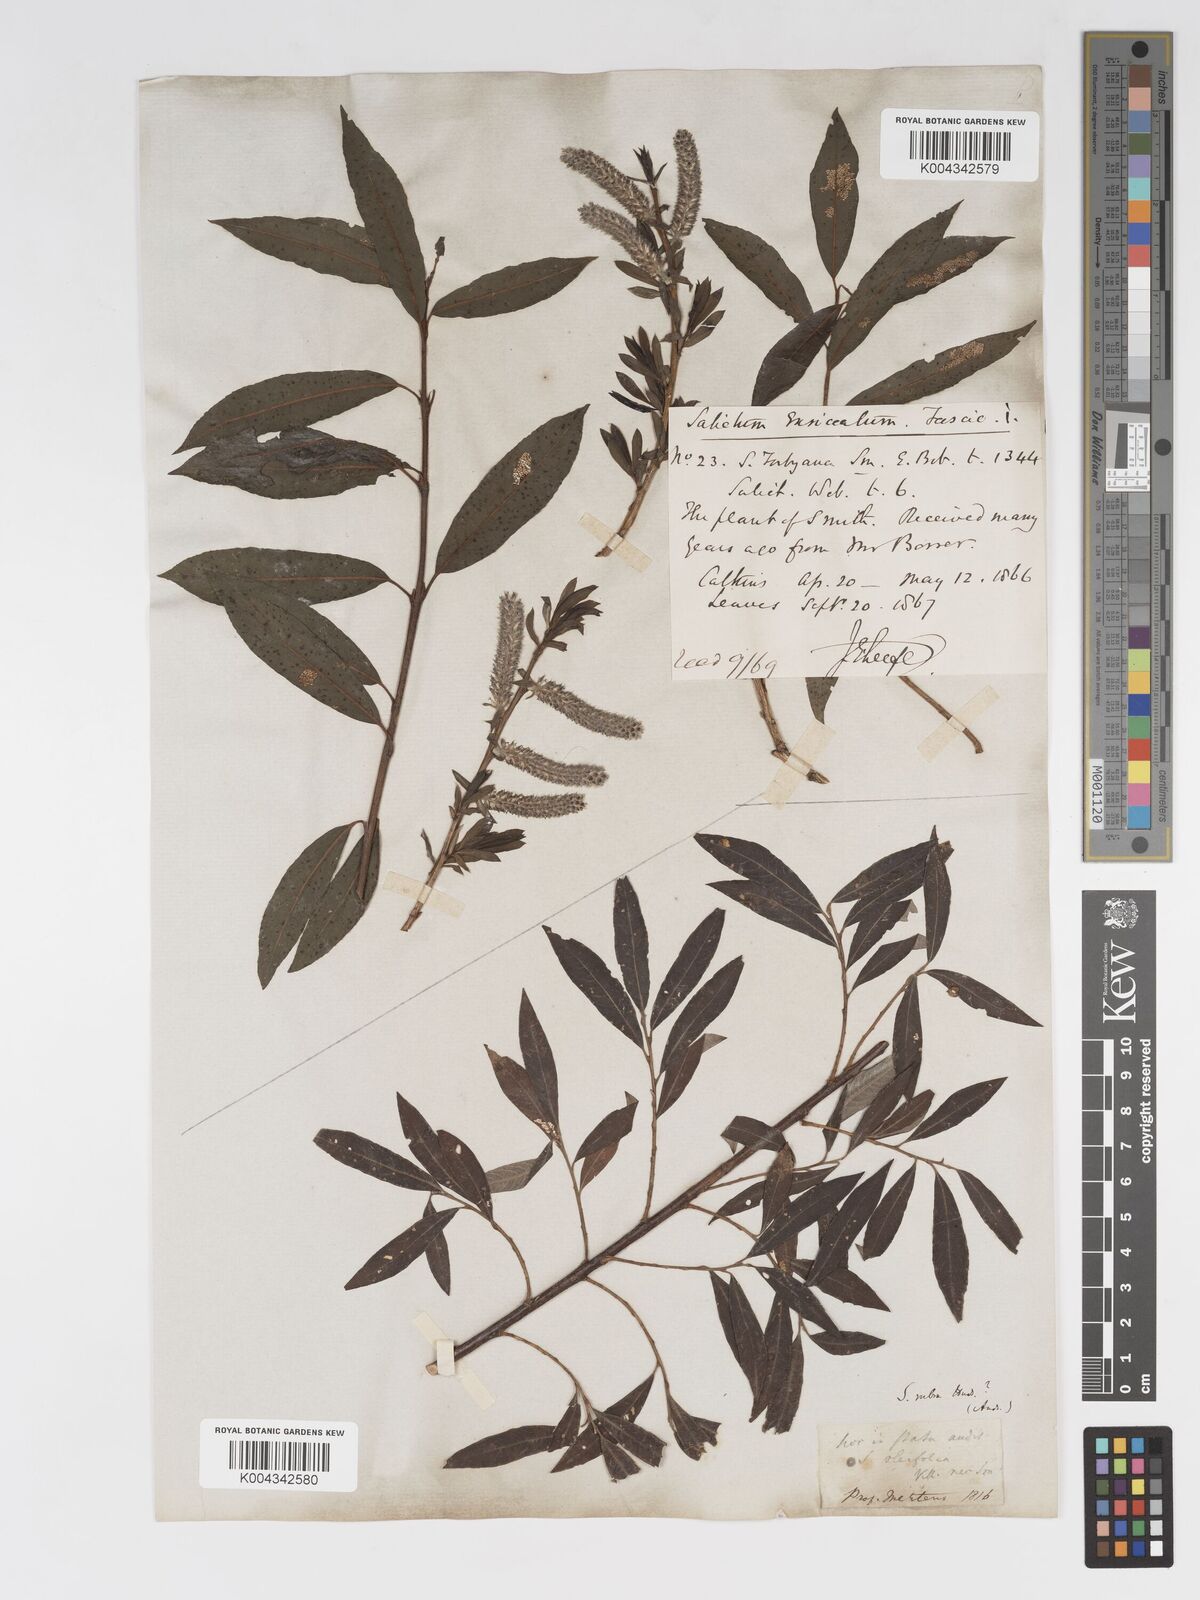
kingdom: Plantae
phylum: Tracheophyta
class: Magnoliopsida
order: Malpighiales
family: Salicaceae
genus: Salix
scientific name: Salix cinerea
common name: Common sallow
